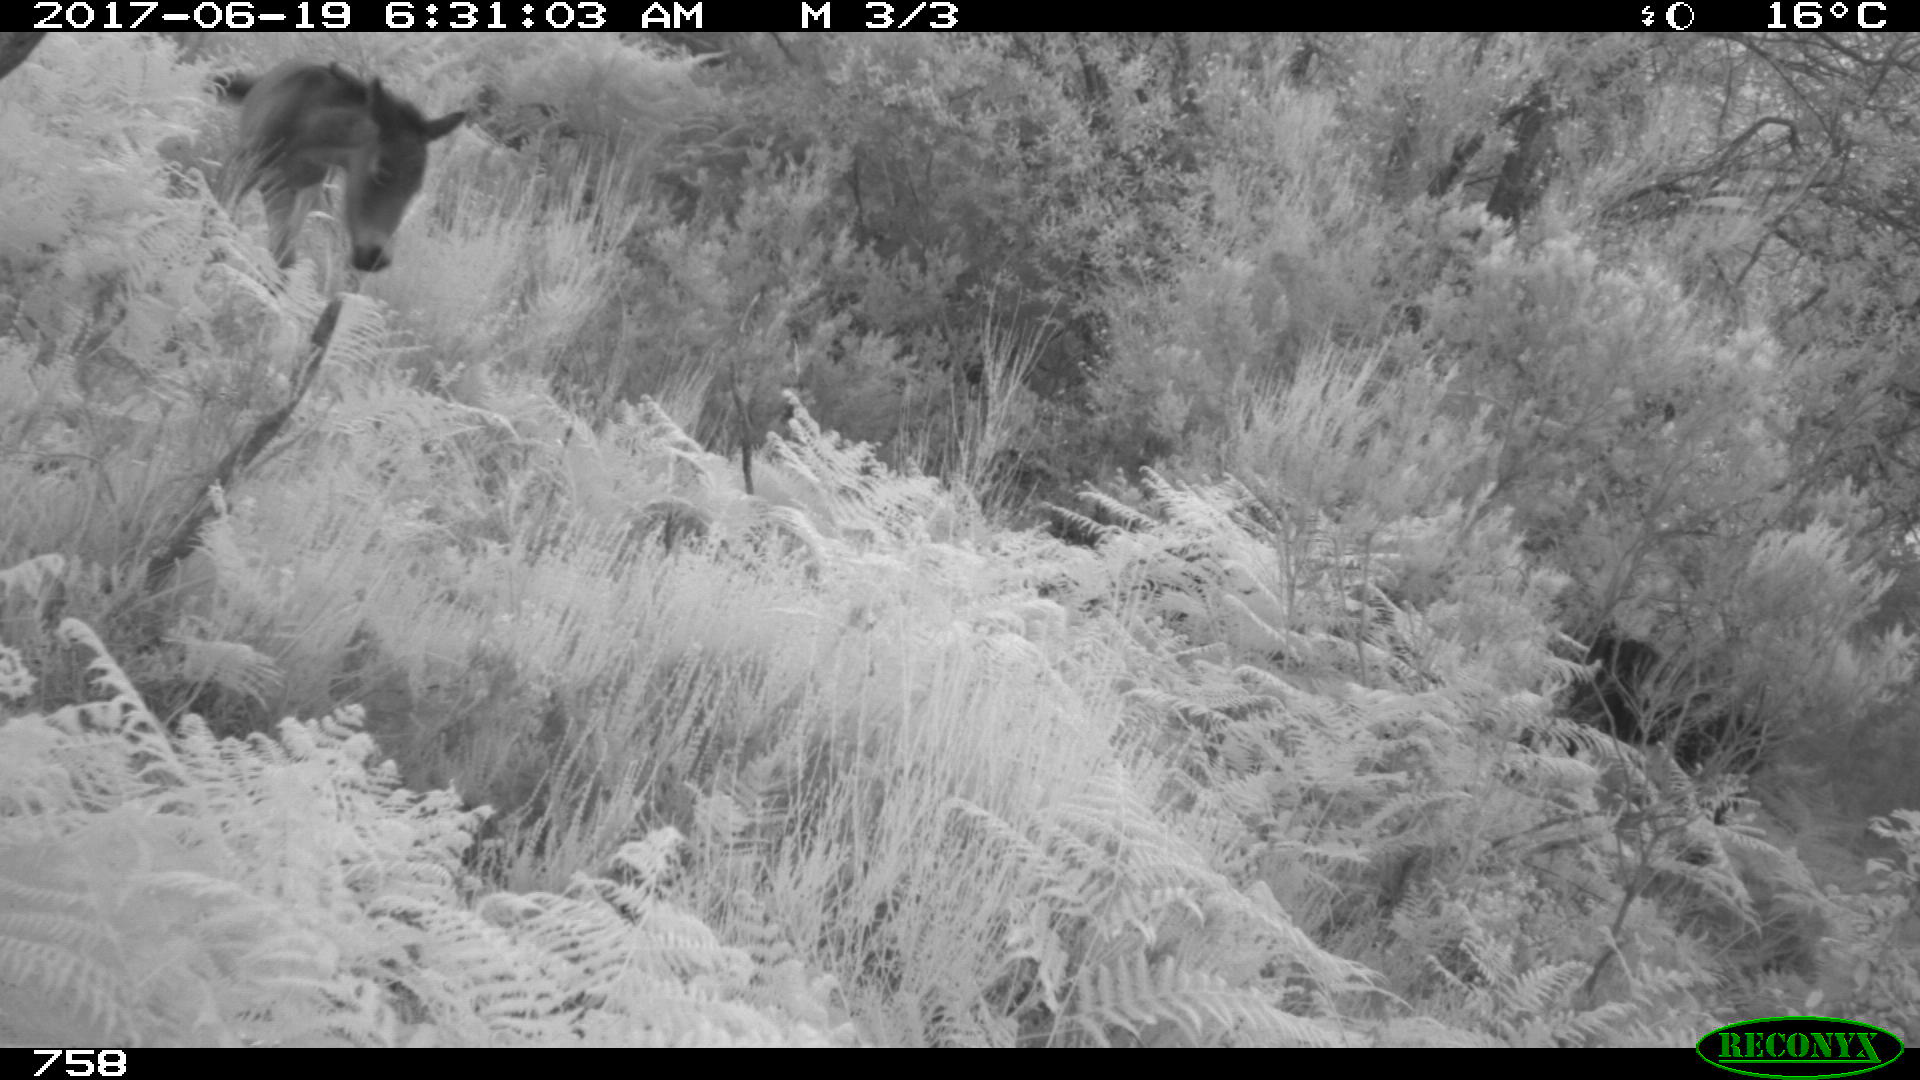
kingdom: Animalia
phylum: Chordata
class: Mammalia
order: Perissodactyla
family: Equidae
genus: Equus
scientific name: Equus caballus
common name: Horse
